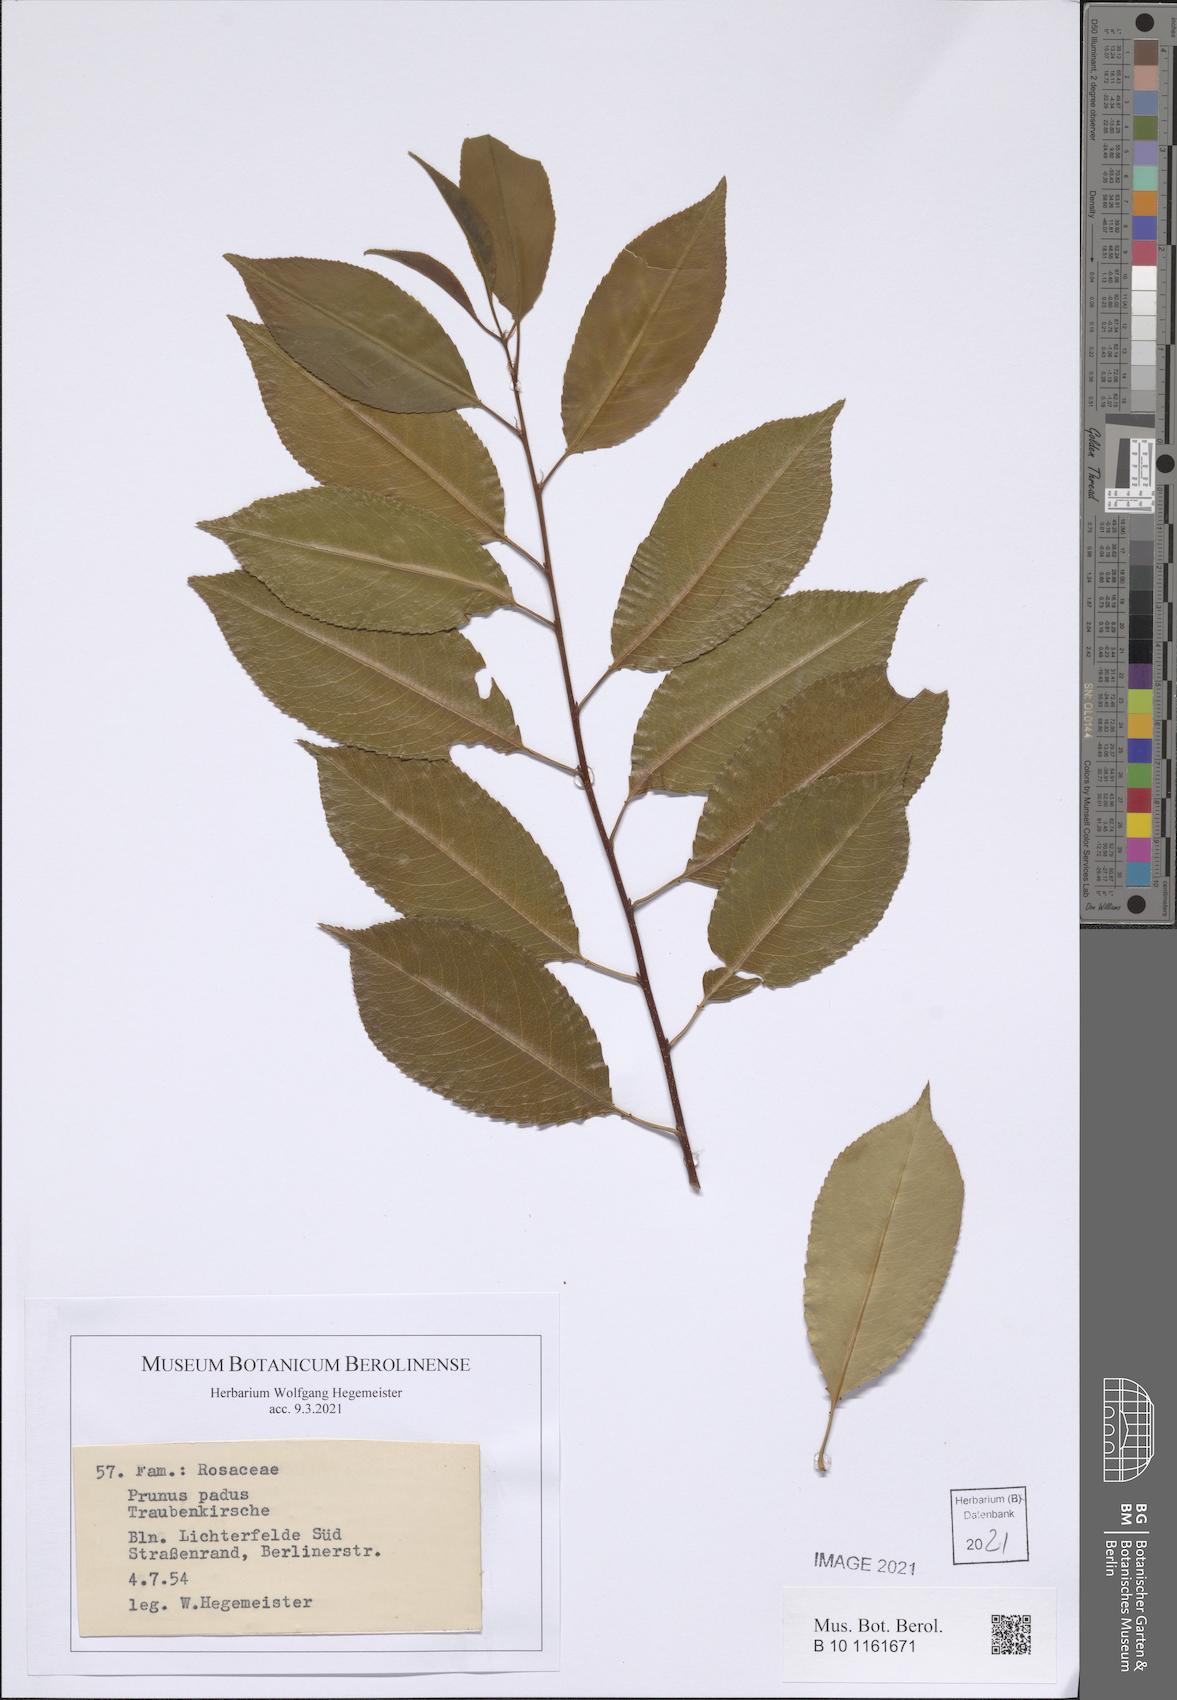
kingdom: Plantae
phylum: Tracheophyta
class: Magnoliopsida
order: Rosales
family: Rosaceae
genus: Prunus
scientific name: Prunus padus
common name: Bird cherry
